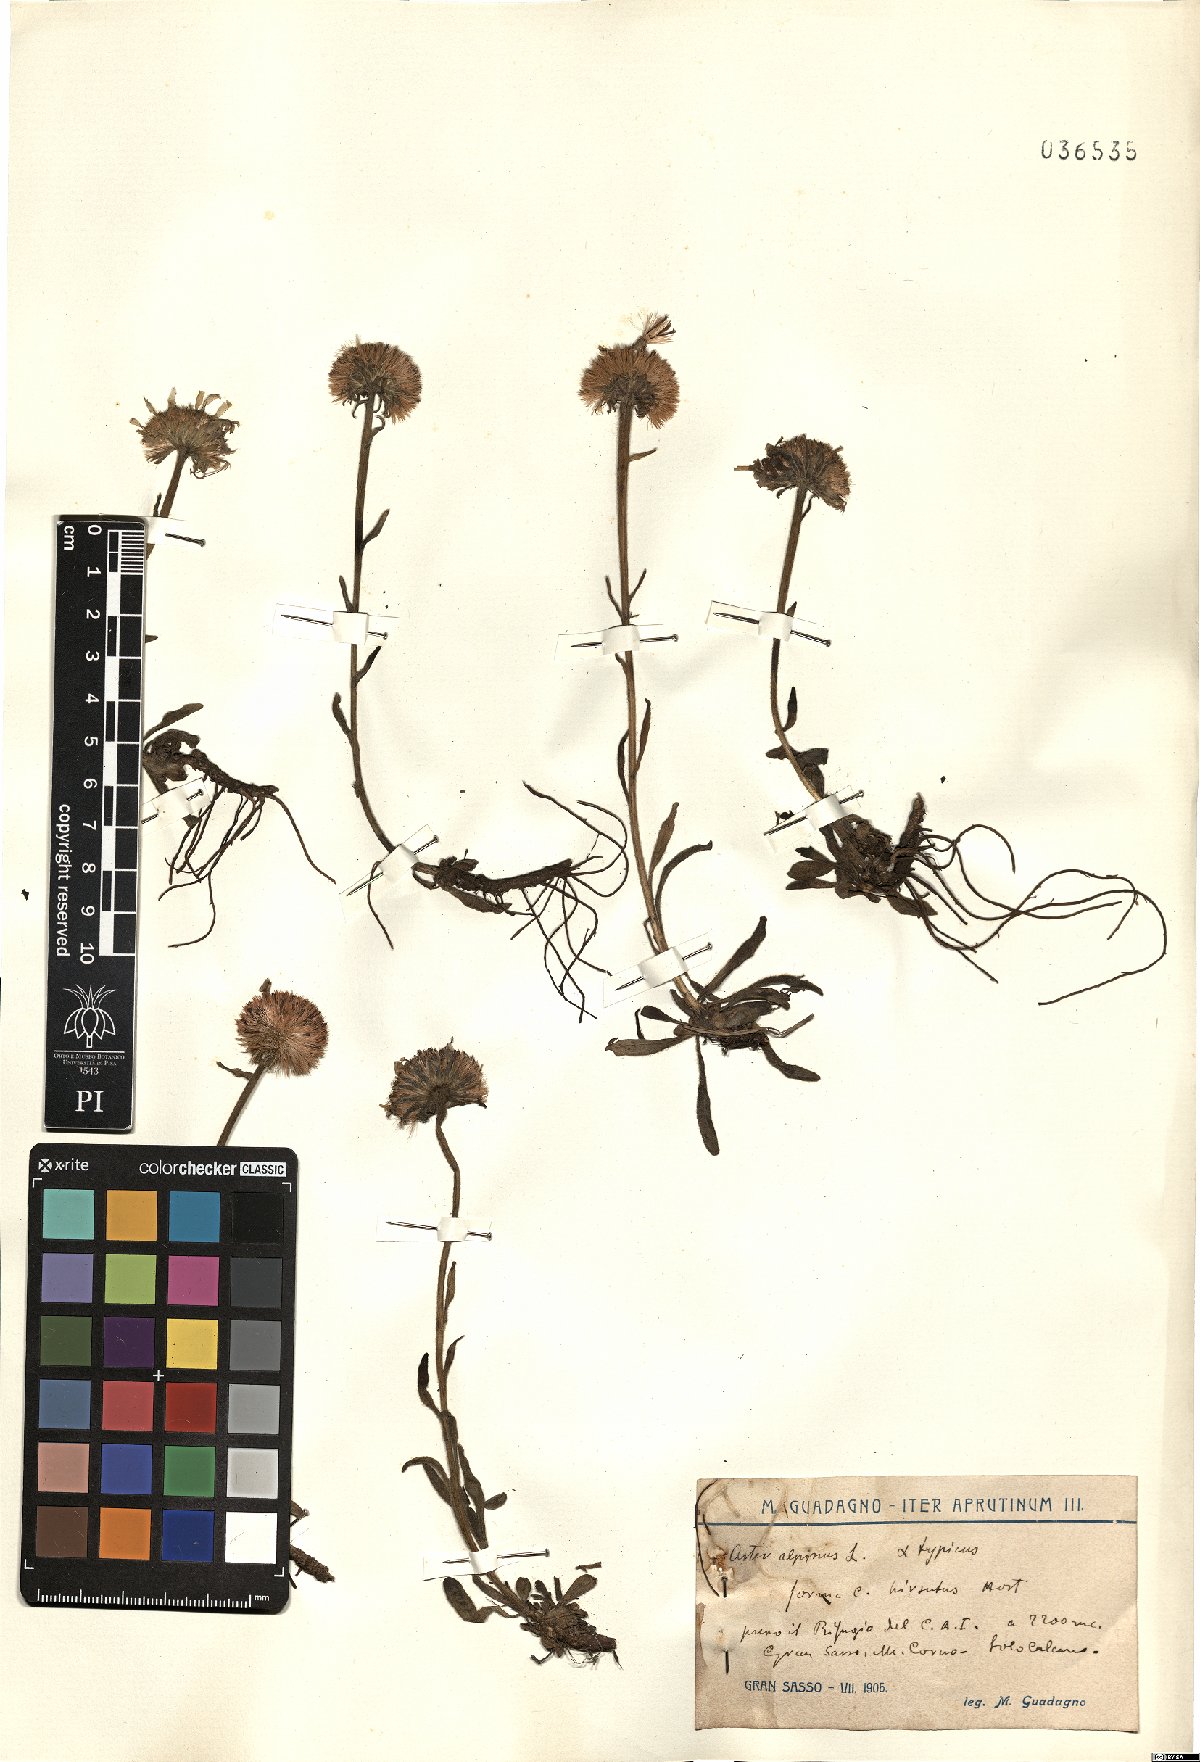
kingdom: Plantae
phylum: Tracheophyta
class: Magnoliopsida
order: Asterales
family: Asteraceae
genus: Aster
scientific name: Aster alpinus
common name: Alpine aster
